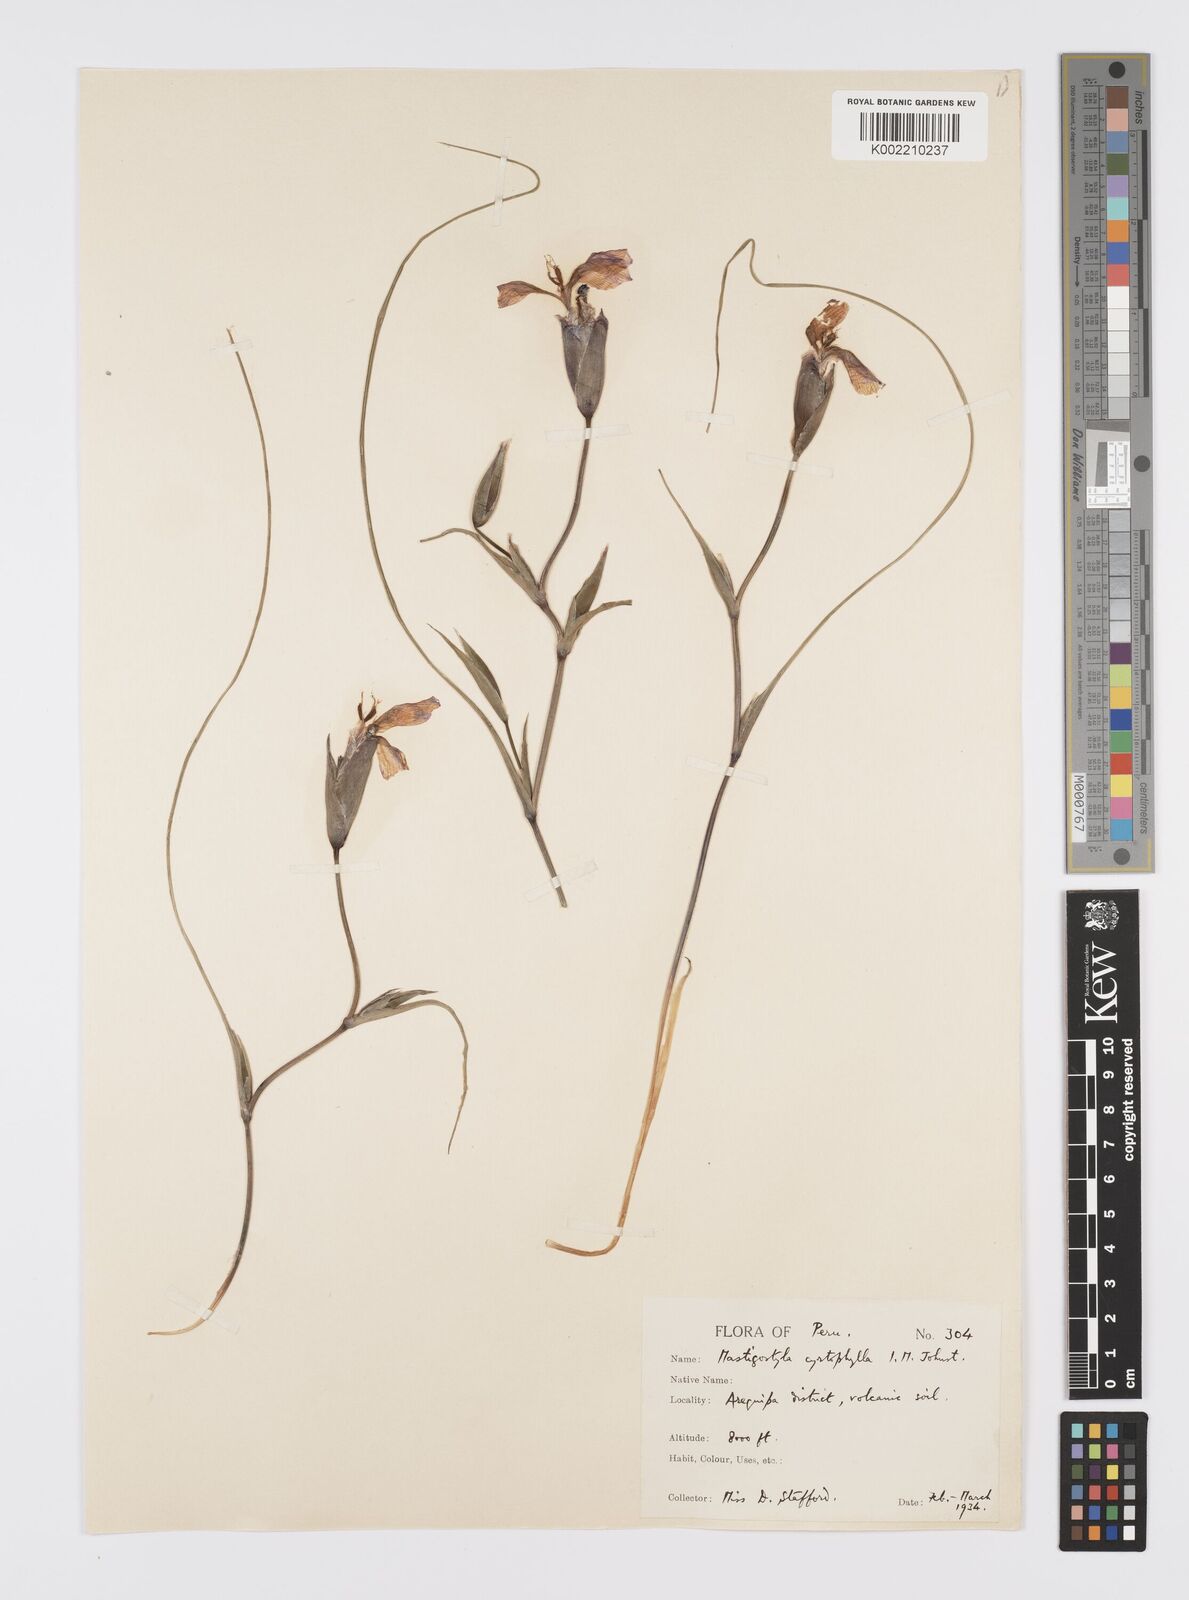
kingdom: Plantae
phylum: Tracheophyta
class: Liliopsida
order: Asparagales
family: Iridaceae
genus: Mastigostyla
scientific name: Mastigostyla cyrtophylla
